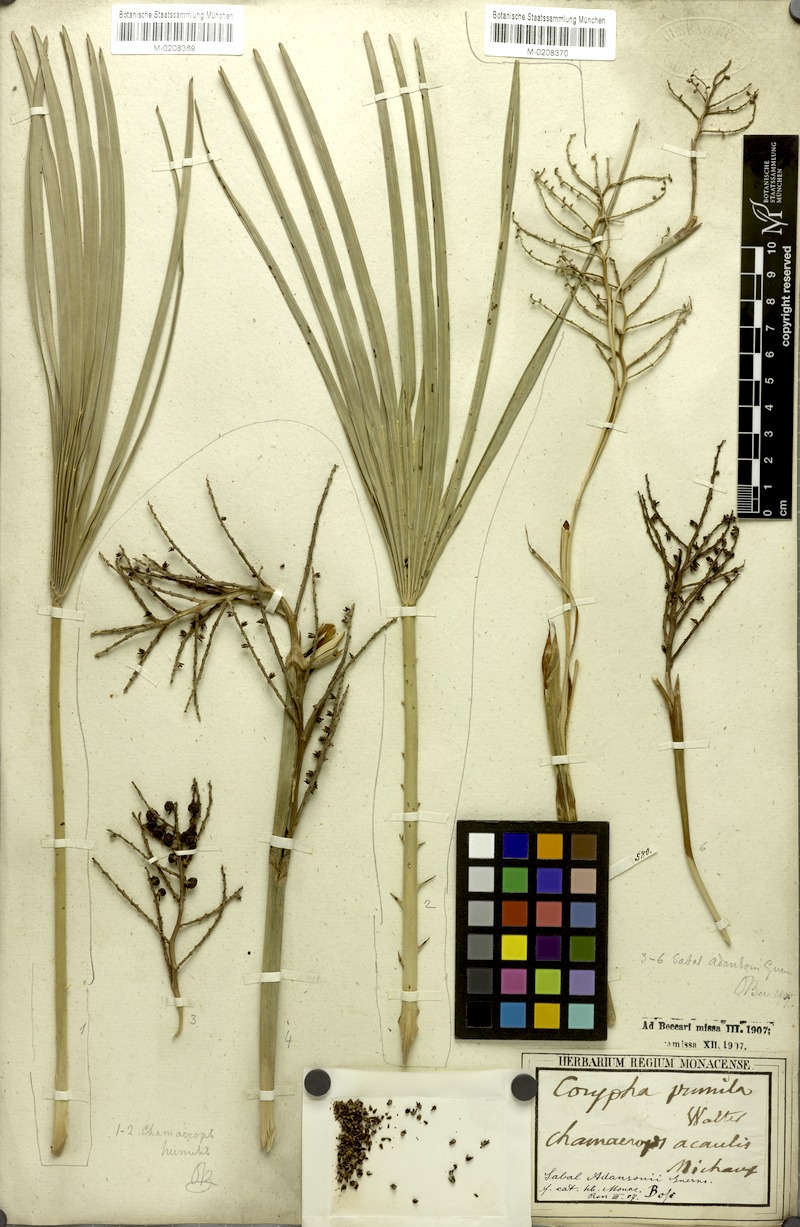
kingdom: Plantae
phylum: Tracheophyta
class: Liliopsida
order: Arecales
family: Arecaceae
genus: Sabal
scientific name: Sabal minor
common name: Dwarf palmetto
